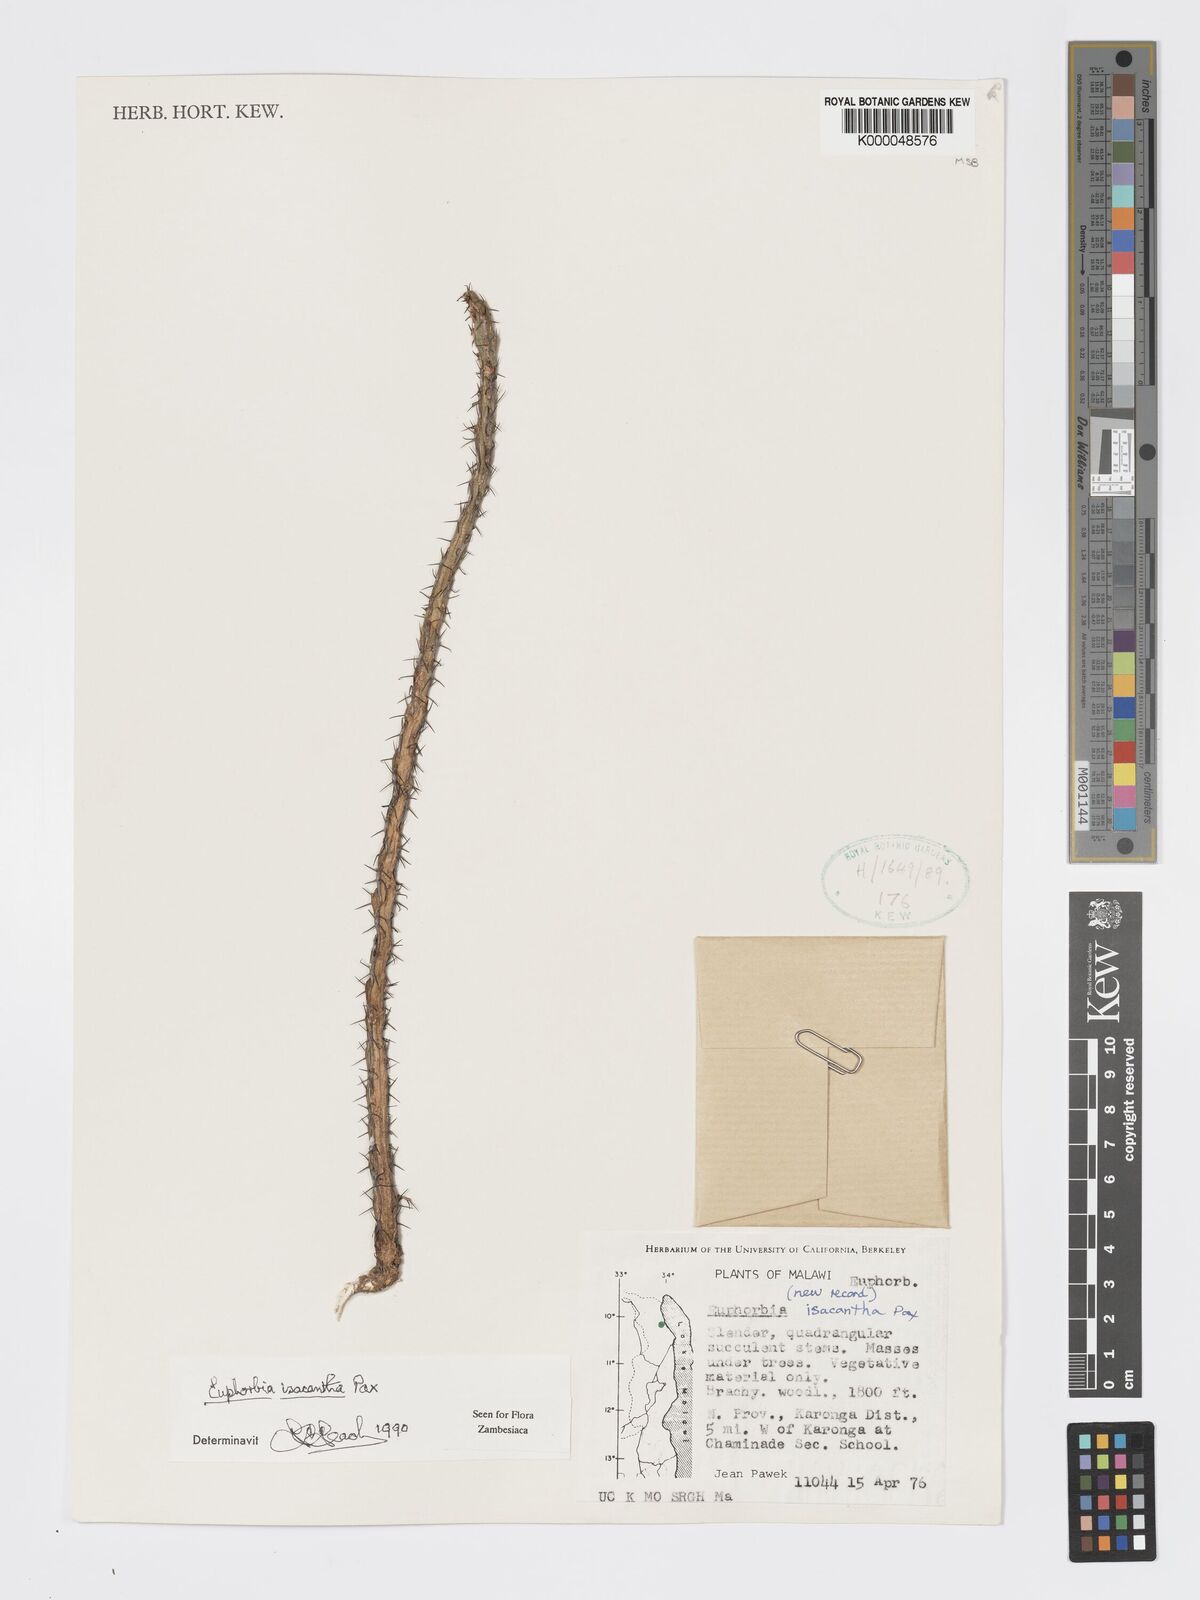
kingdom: Plantae
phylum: Tracheophyta
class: Magnoliopsida
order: Malpighiales
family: Euphorbiaceae
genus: Euphorbia
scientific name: Euphorbia isacantha
